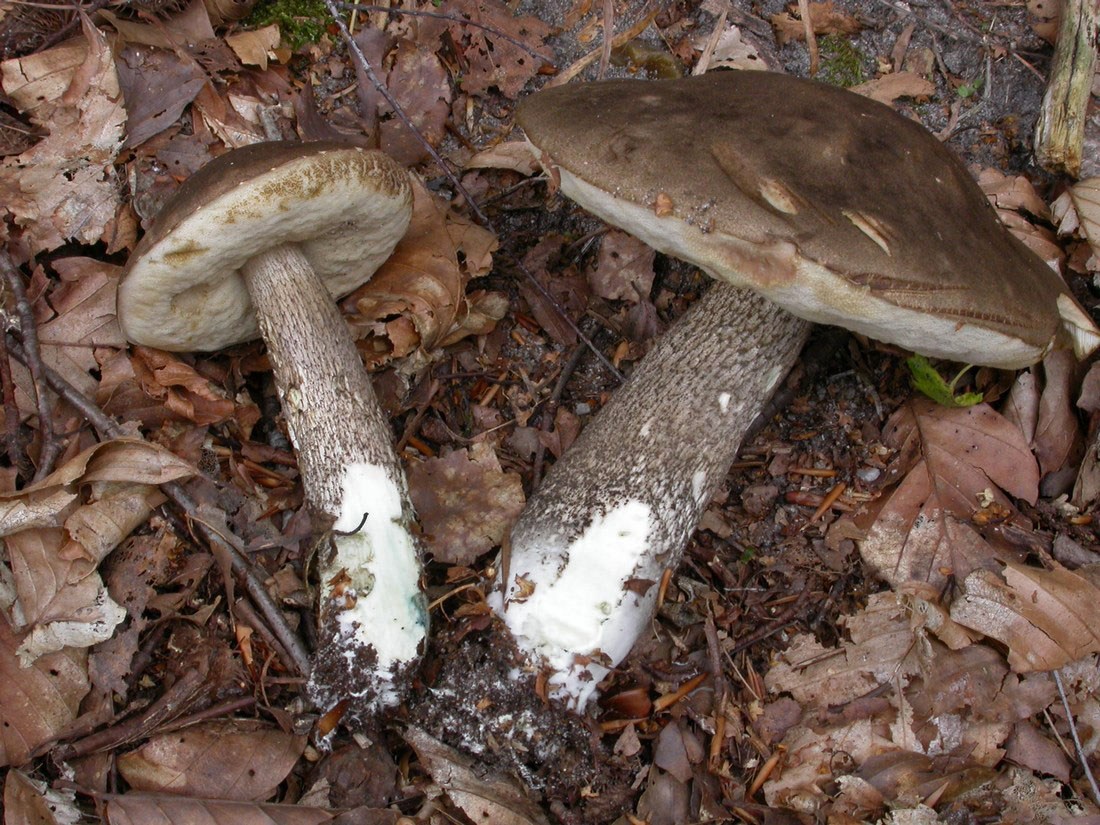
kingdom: Fungi
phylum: Basidiomycota
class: Agaricomycetes
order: Boletales
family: Boletaceae
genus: Leccinum
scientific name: Leccinum variicolor
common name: flammet skælrørhat
